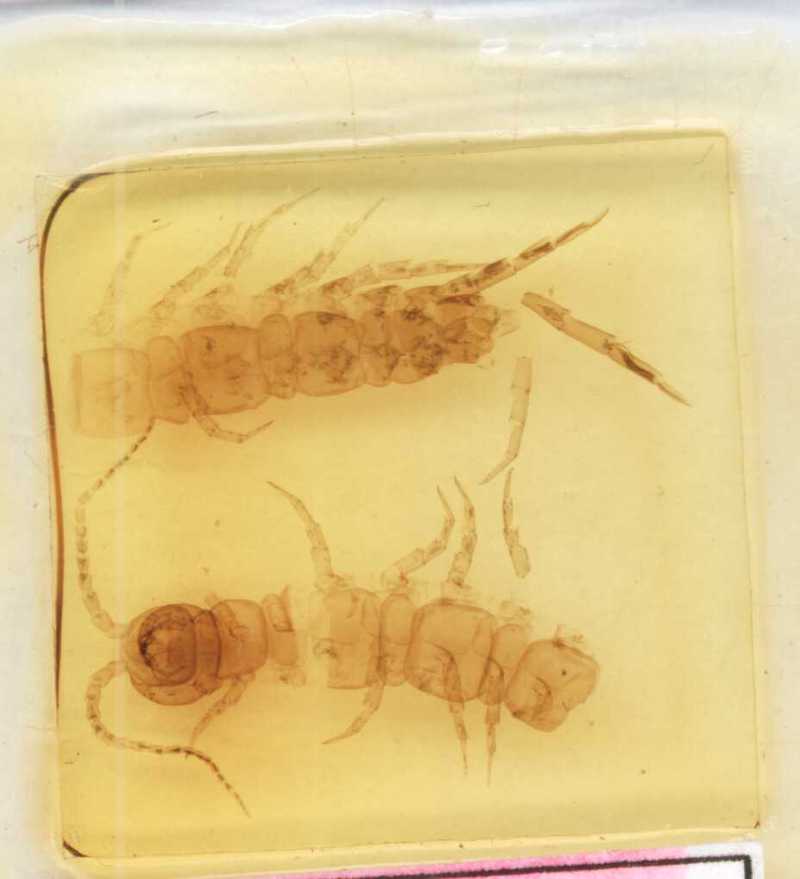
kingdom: Animalia
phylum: Arthropoda
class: Chilopoda
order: Lithobiomorpha
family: Lithobiidae
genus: Hessebius
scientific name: Hessebius barbipes
